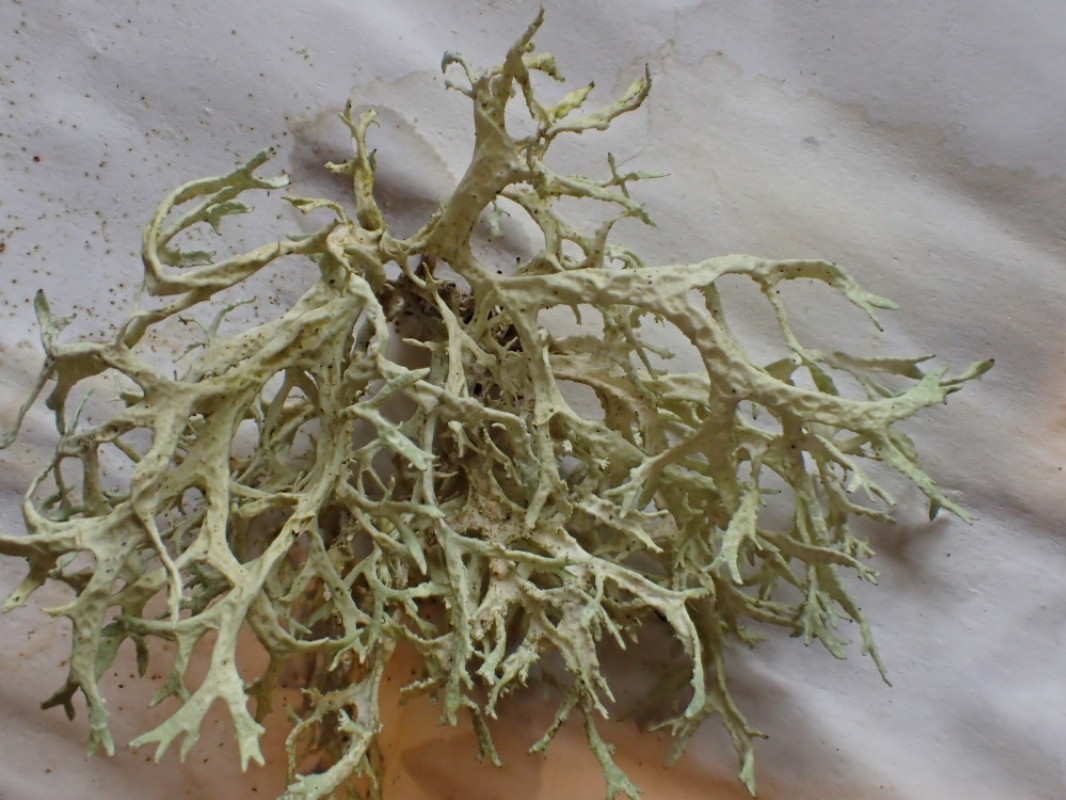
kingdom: Fungi
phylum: Ascomycota
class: Lecanoromycetes
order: Lecanorales
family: Parmeliaceae
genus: Evernia
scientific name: Evernia prunastri
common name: almindelig slåenlav
